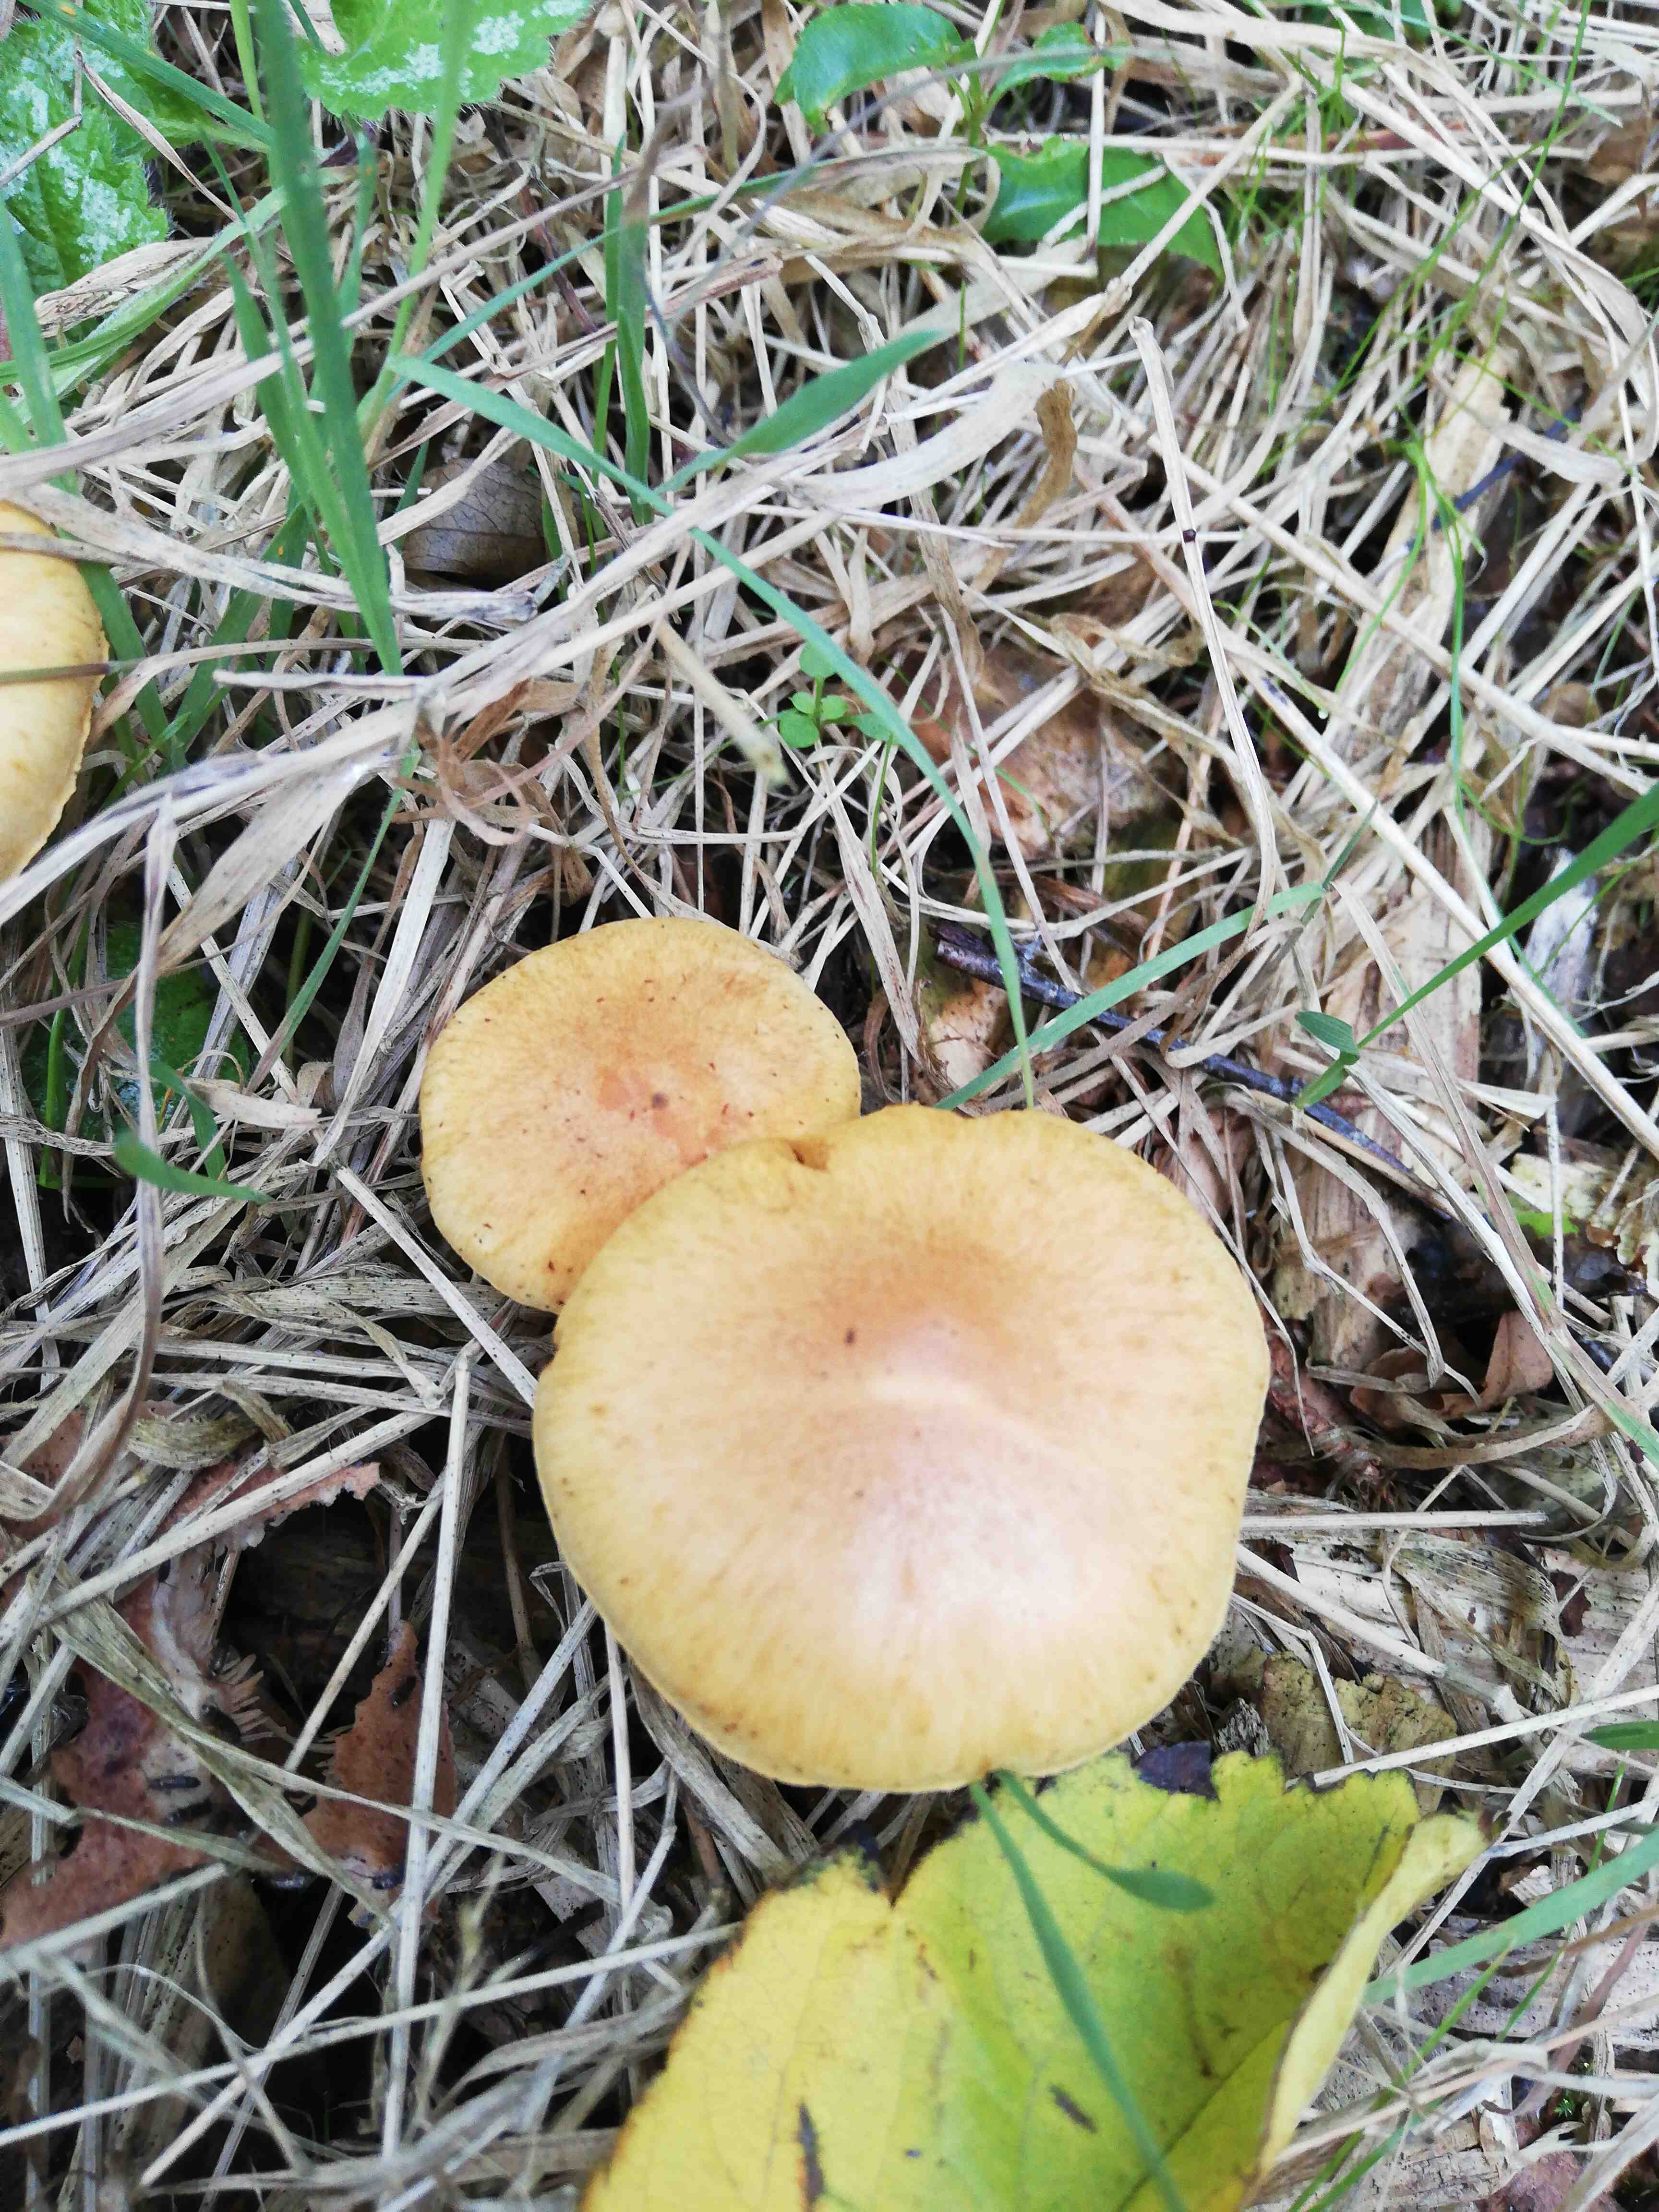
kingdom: Fungi
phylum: Basidiomycota
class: Agaricomycetes
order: Agaricales
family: Hymenogastraceae
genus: Gymnopilus
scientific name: Gymnopilus penetrans
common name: plettet flammehat
